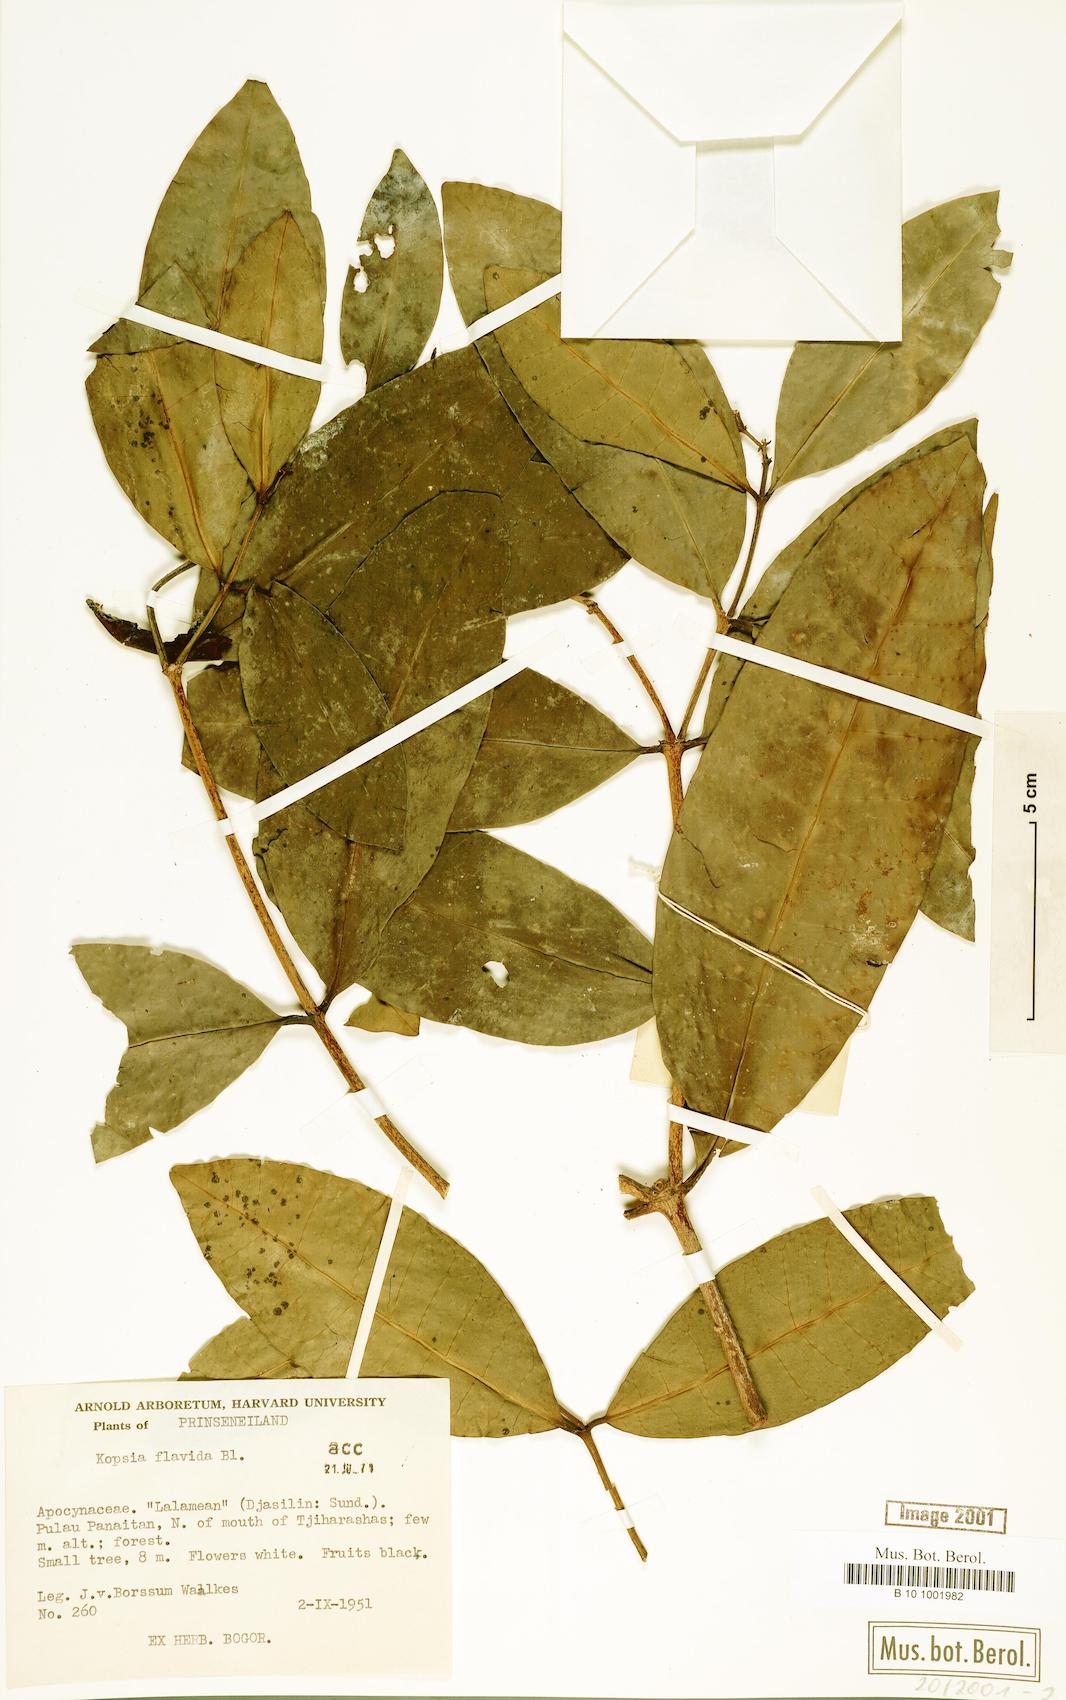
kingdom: Plantae
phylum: Tracheophyta
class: Magnoliopsida
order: Gentianales
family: Apocynaceae
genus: Kopsia
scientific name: Kopsia flavida
